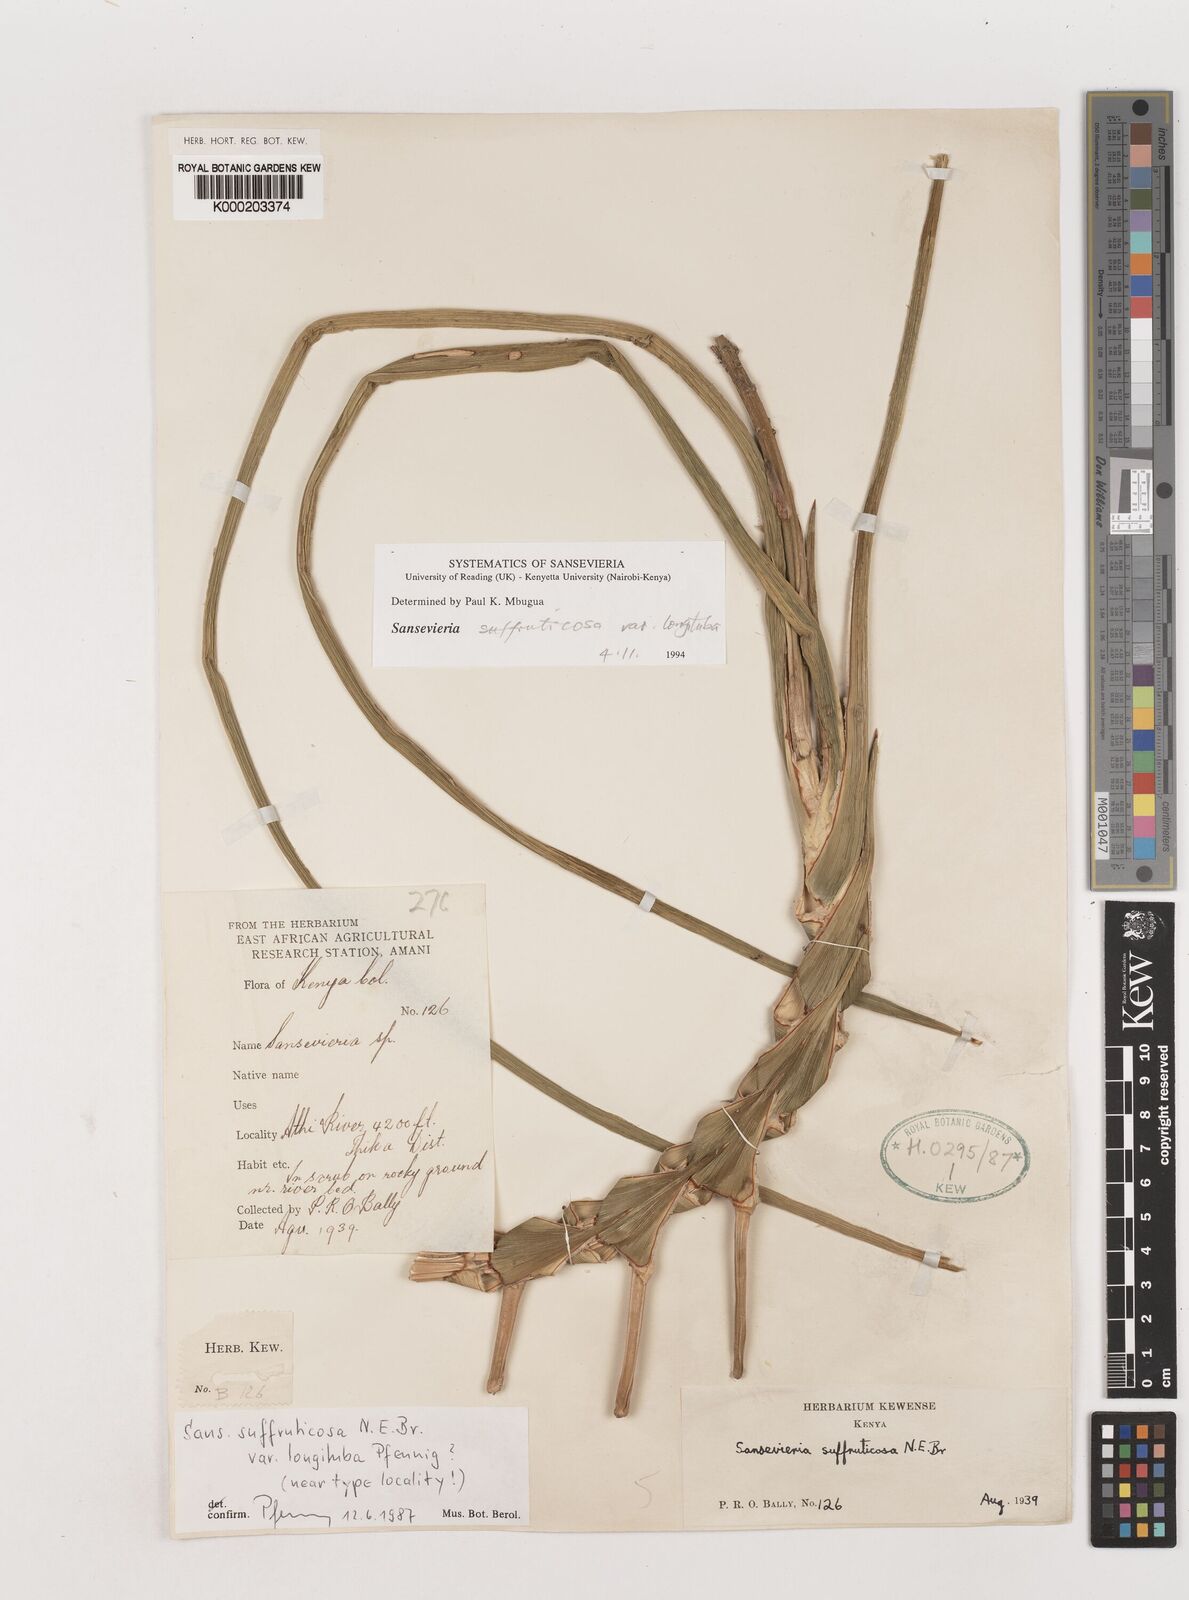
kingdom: Plantae
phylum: Tracheophyta
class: Liliopsida
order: Asparagales
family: Asparagaceae
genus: Dracaena
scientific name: Dracaena suffruticosa
